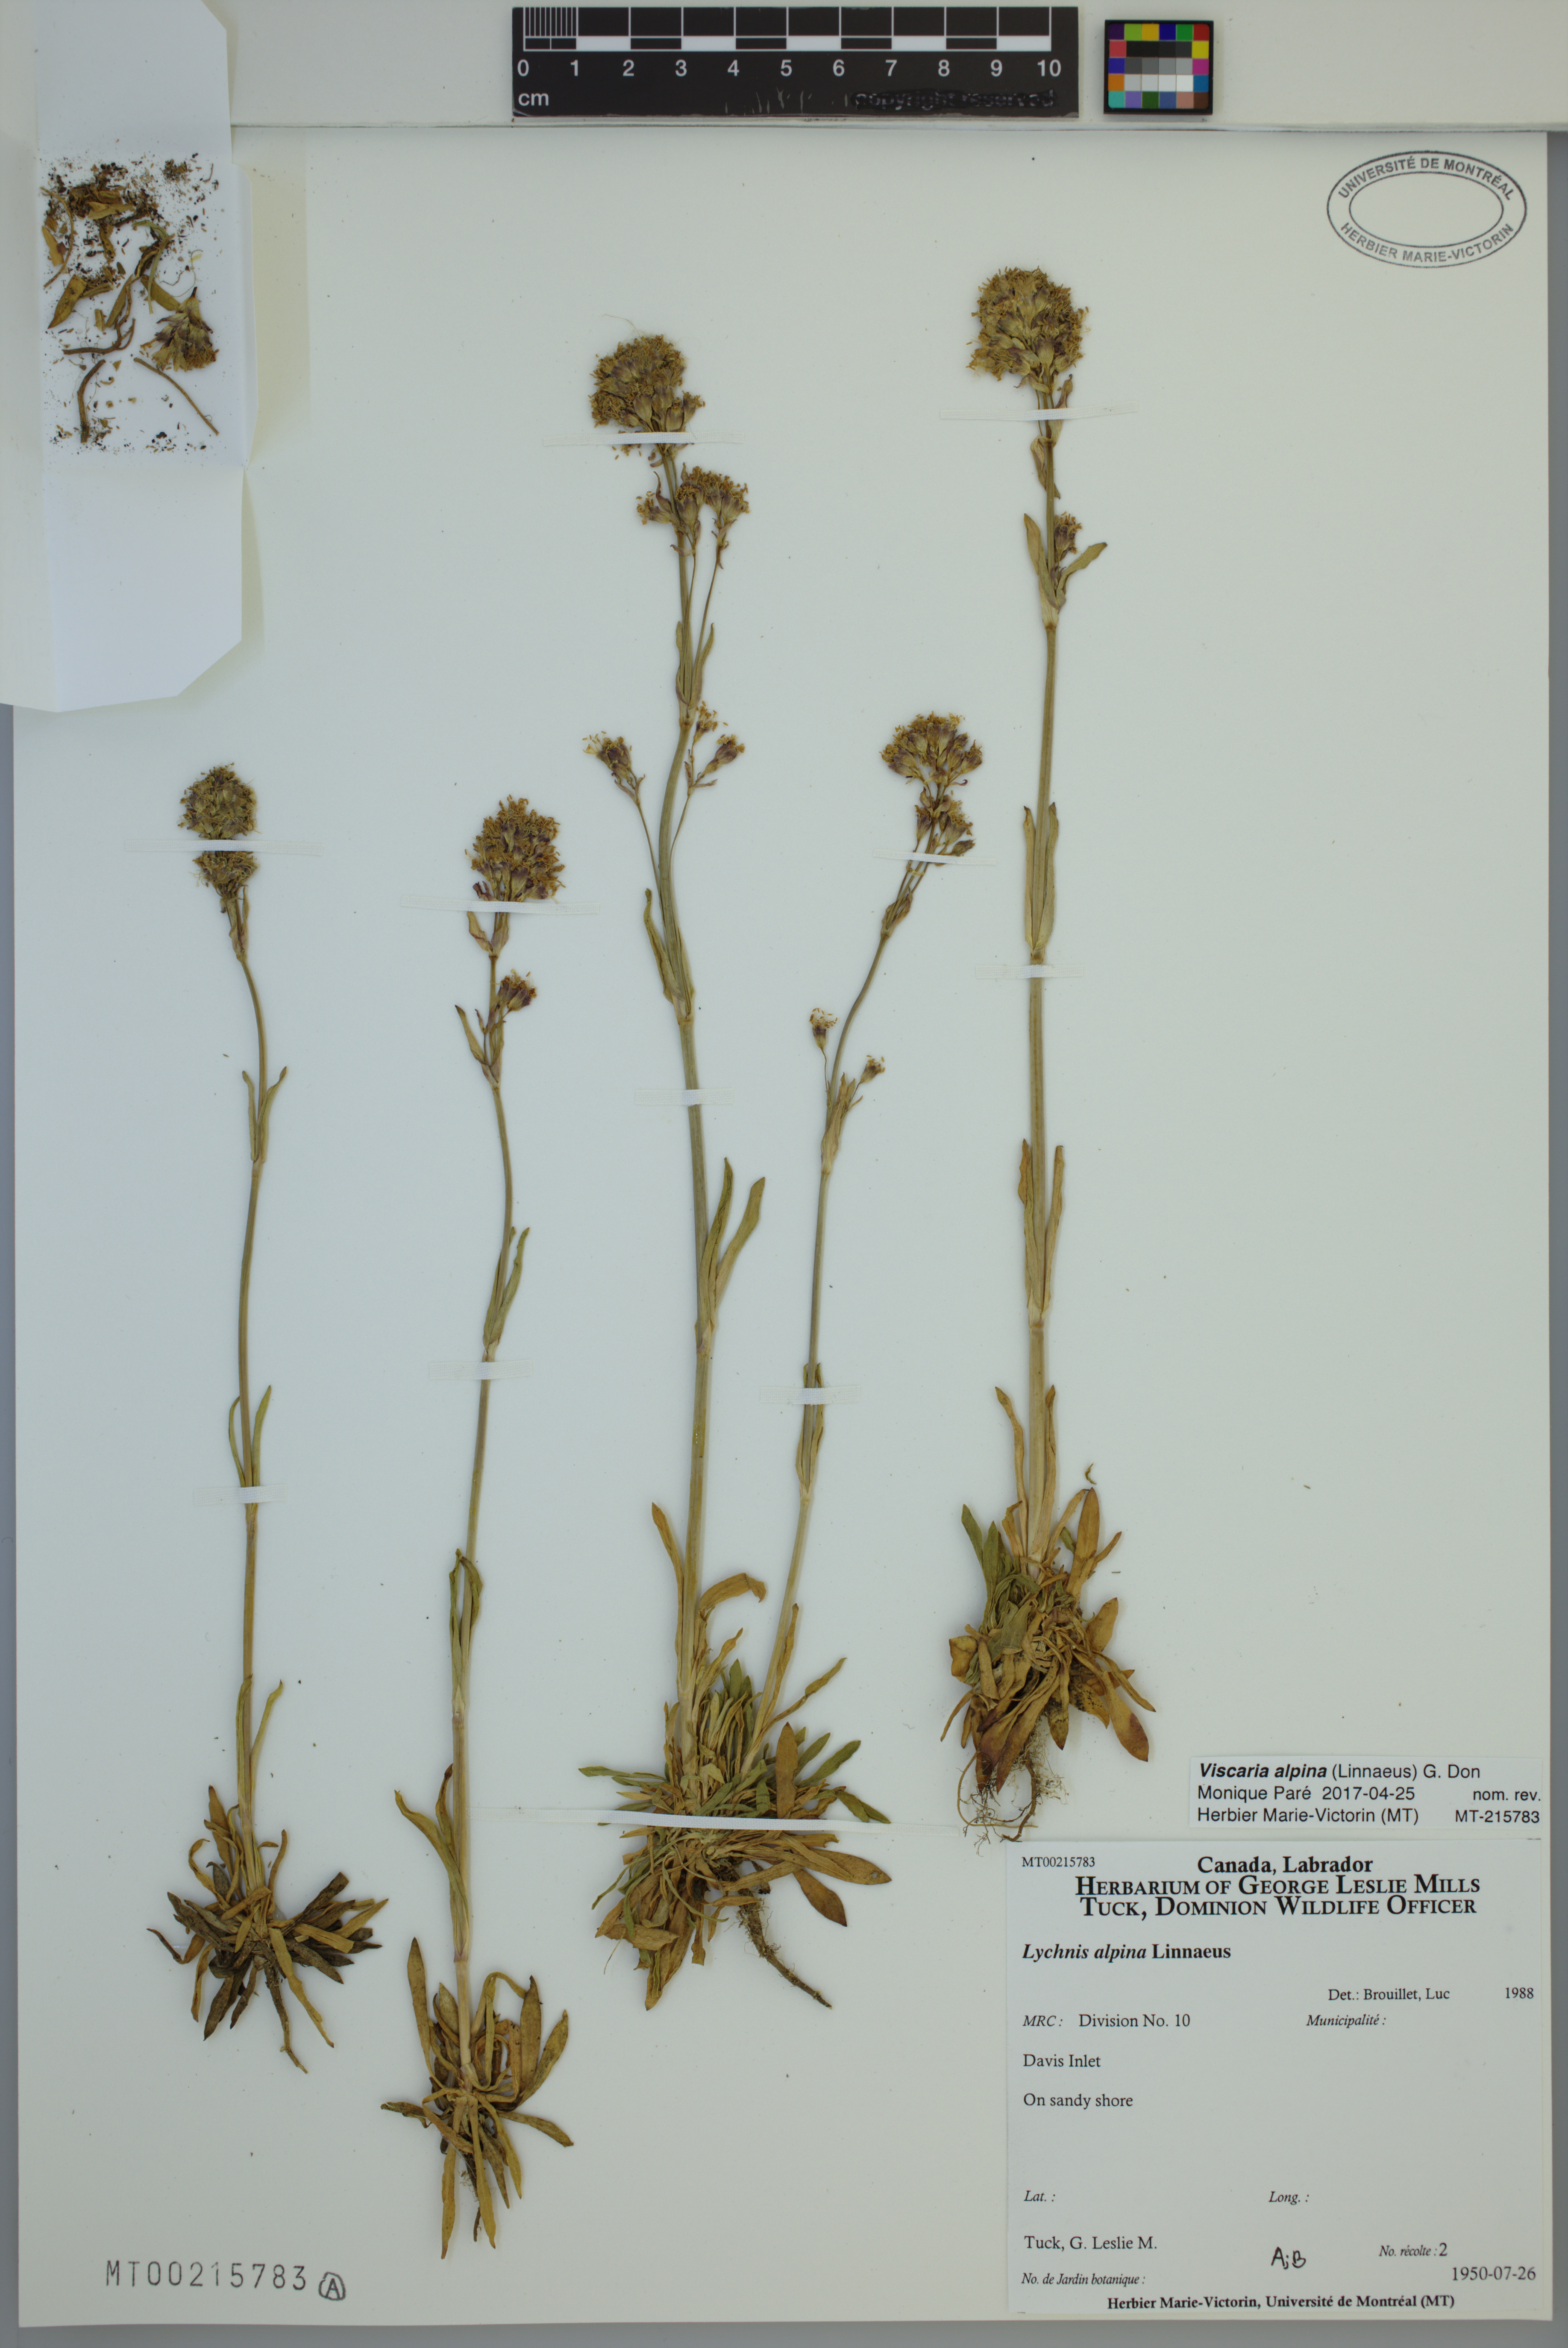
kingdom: Plantae
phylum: Tracheophyta
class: Magnoliopsida
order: Caryophyllales
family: Caryophyllaceae
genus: Viscaria
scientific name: Viscaria alpina
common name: Alpine campion
